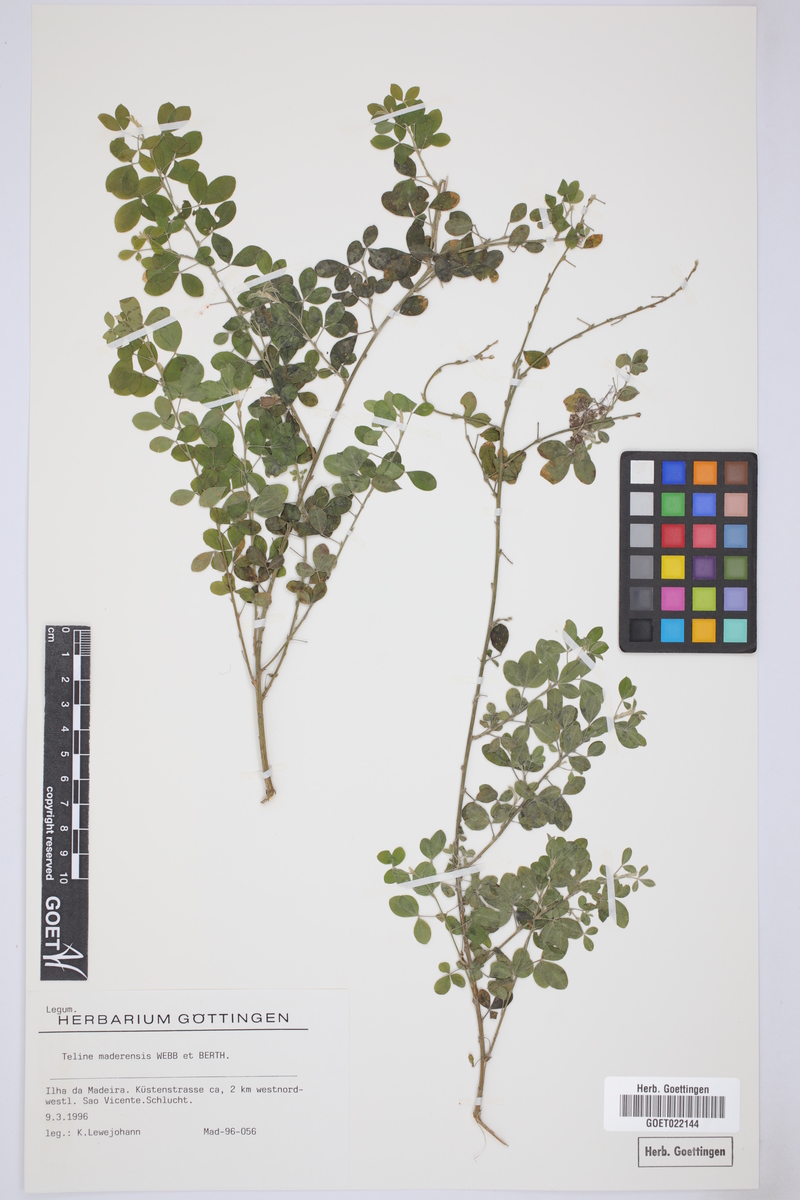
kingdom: Plantae
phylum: Tracheophyta
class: Magnoliopsida
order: Fabales
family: Fabaceae
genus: Genista
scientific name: Genista maderensis
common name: Madeira dyer's greenweed
